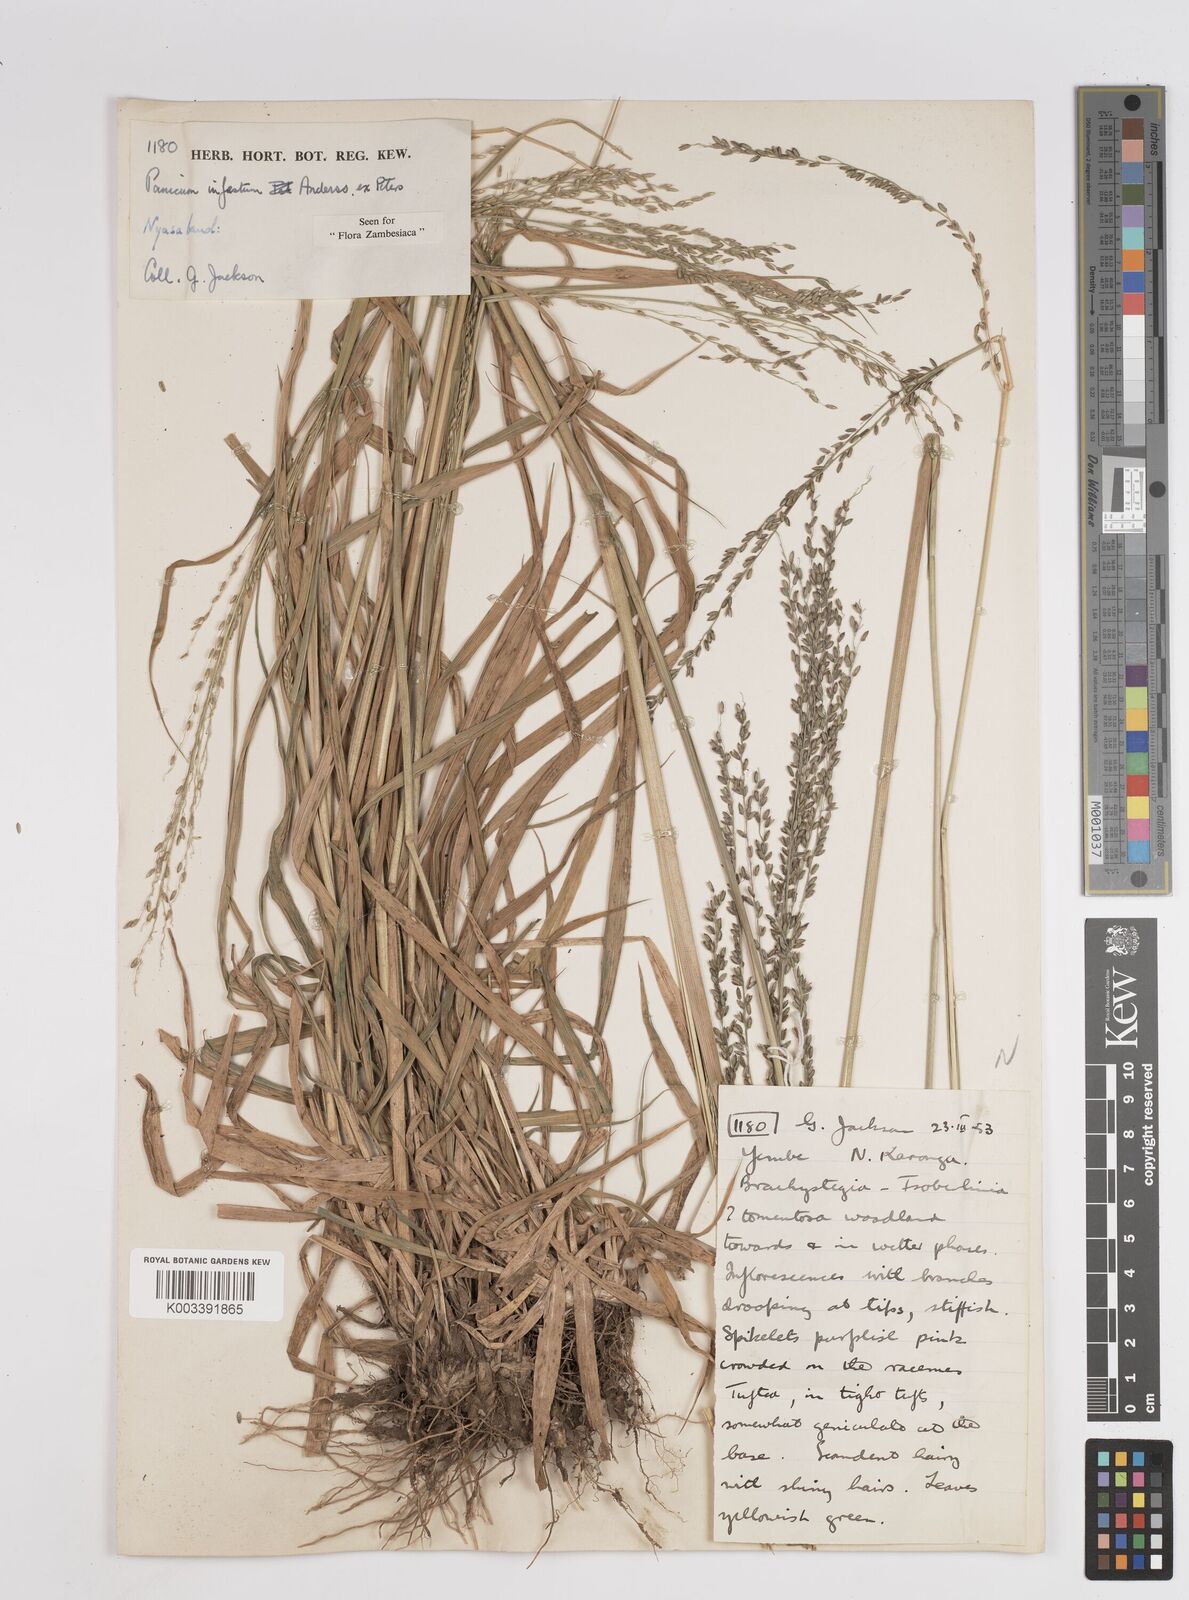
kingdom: Plantae
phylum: Tracheophyta
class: Liliopsida
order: Poales
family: Poaceae
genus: Megathyrsus
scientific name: Megathyrsus infestus
